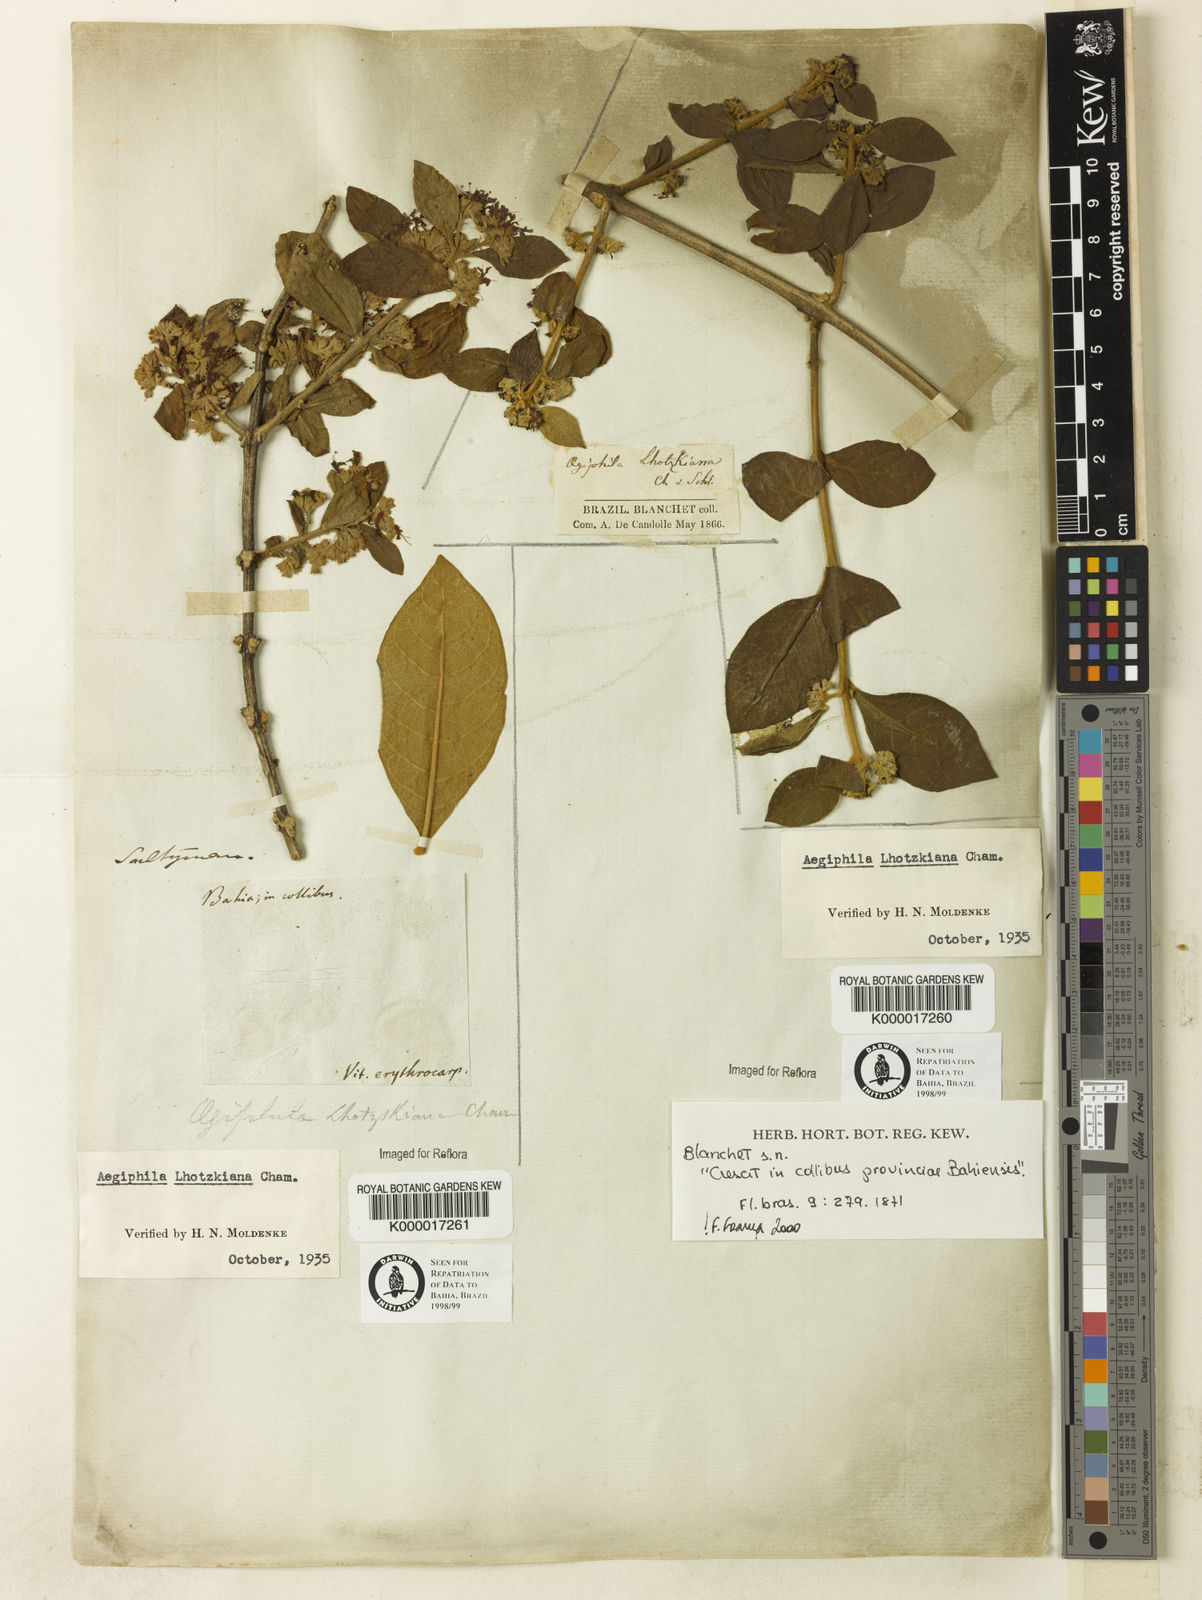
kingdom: Plantae
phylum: Tracheophyta
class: Magnoliopsida
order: Lamiales
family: Lamiaceae
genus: Aegiphila
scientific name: Aegiphila verticillata
